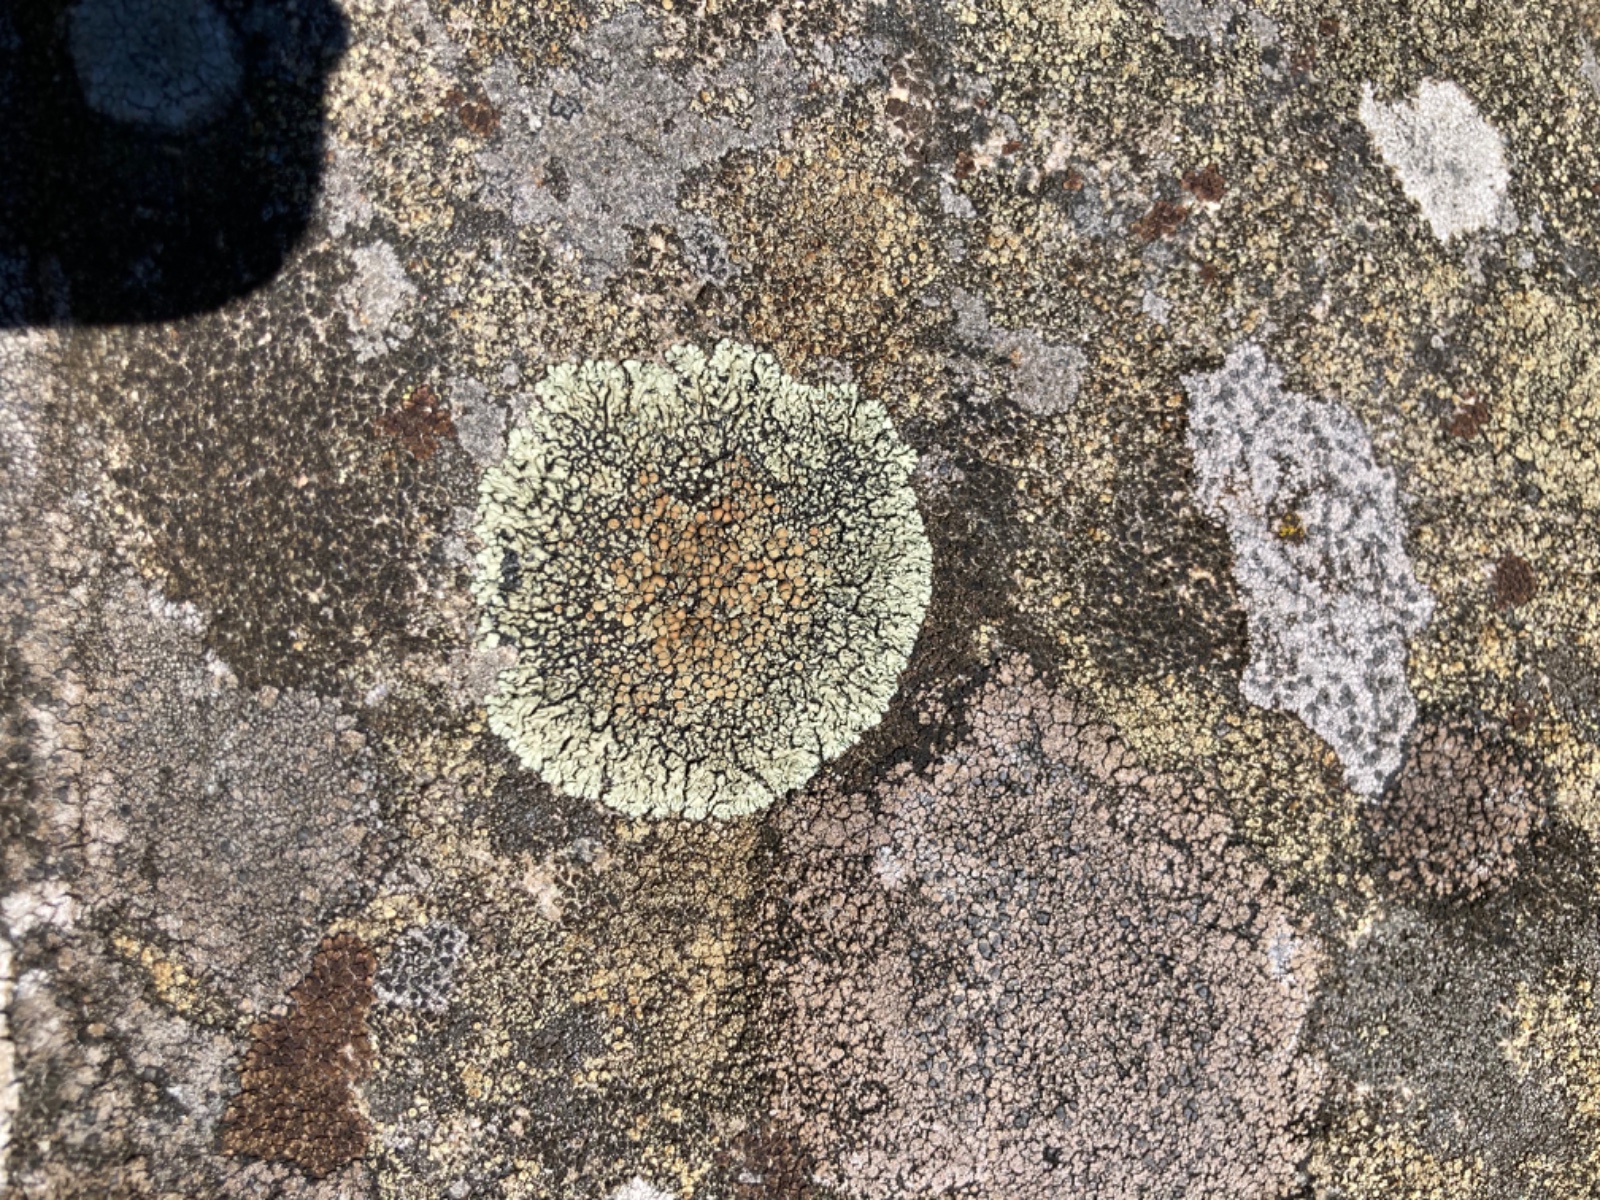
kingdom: Fungi
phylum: Ascomycota
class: Lecanoromycetes
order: Lecanorales
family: Lecanoraceae
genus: Protoparmeliopsis
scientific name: Protoparmeliopsis muralis
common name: randfliget kantskivelav
